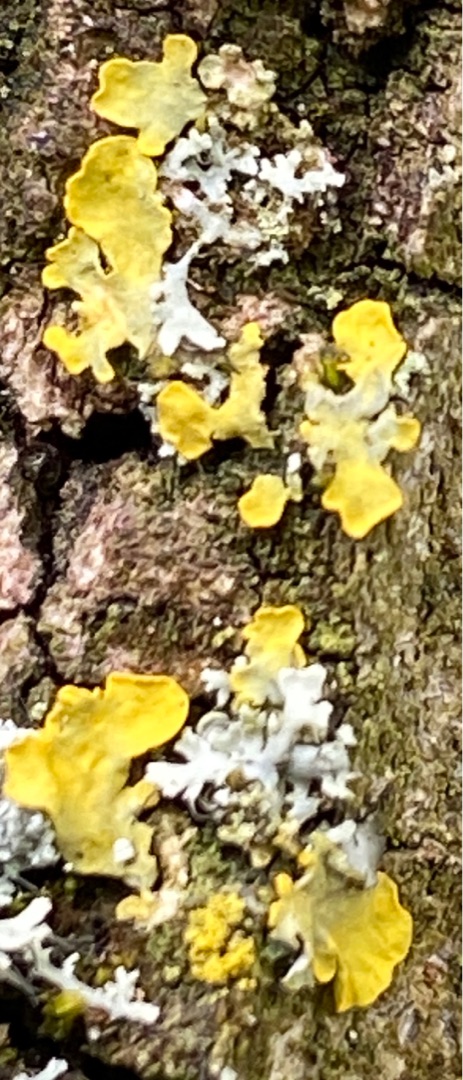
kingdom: Fungi
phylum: Ascomycota
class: Lecanoromycetes
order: Teloschistales
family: Teloschistaceae
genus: Xanthoria
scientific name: Xanthoria parietina
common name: Almindelig væggelav
